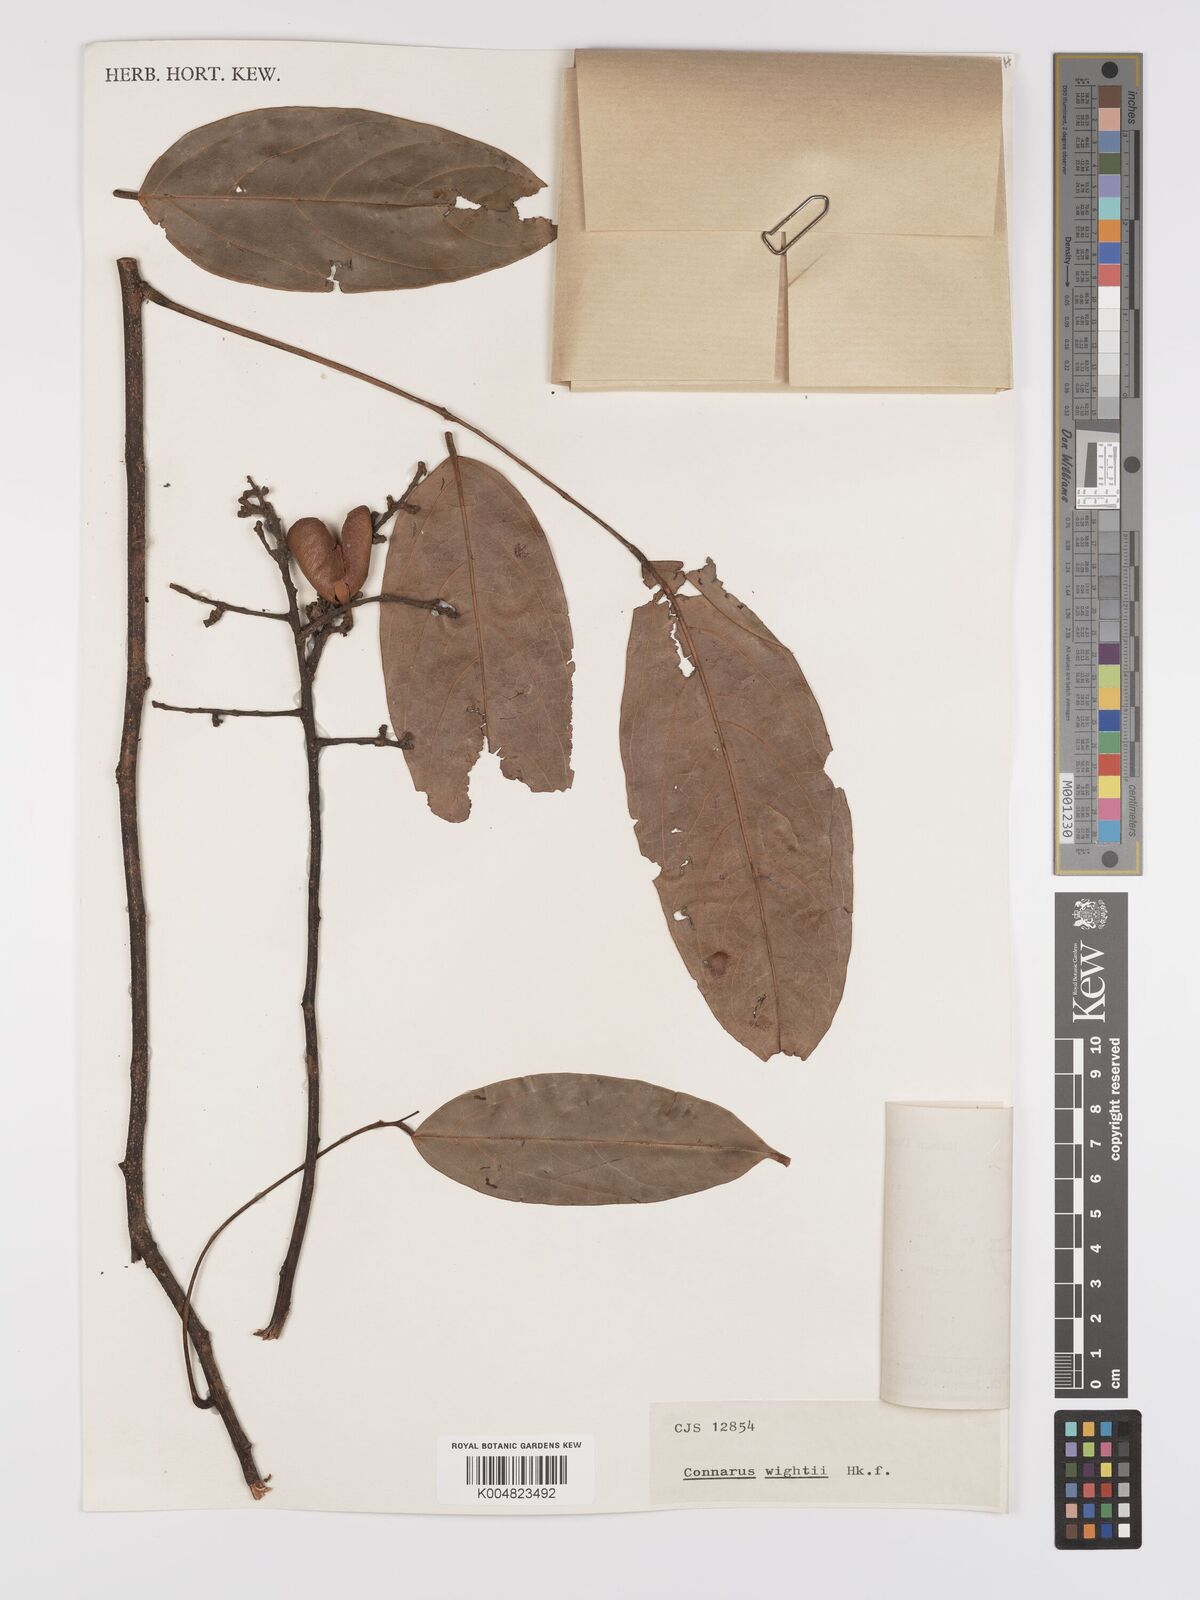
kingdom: Plantae
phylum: Tracheophyta
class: Magnoliopsida
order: Oxalidales
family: Connaraceae
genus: Connarus
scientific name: Connarus wightii
